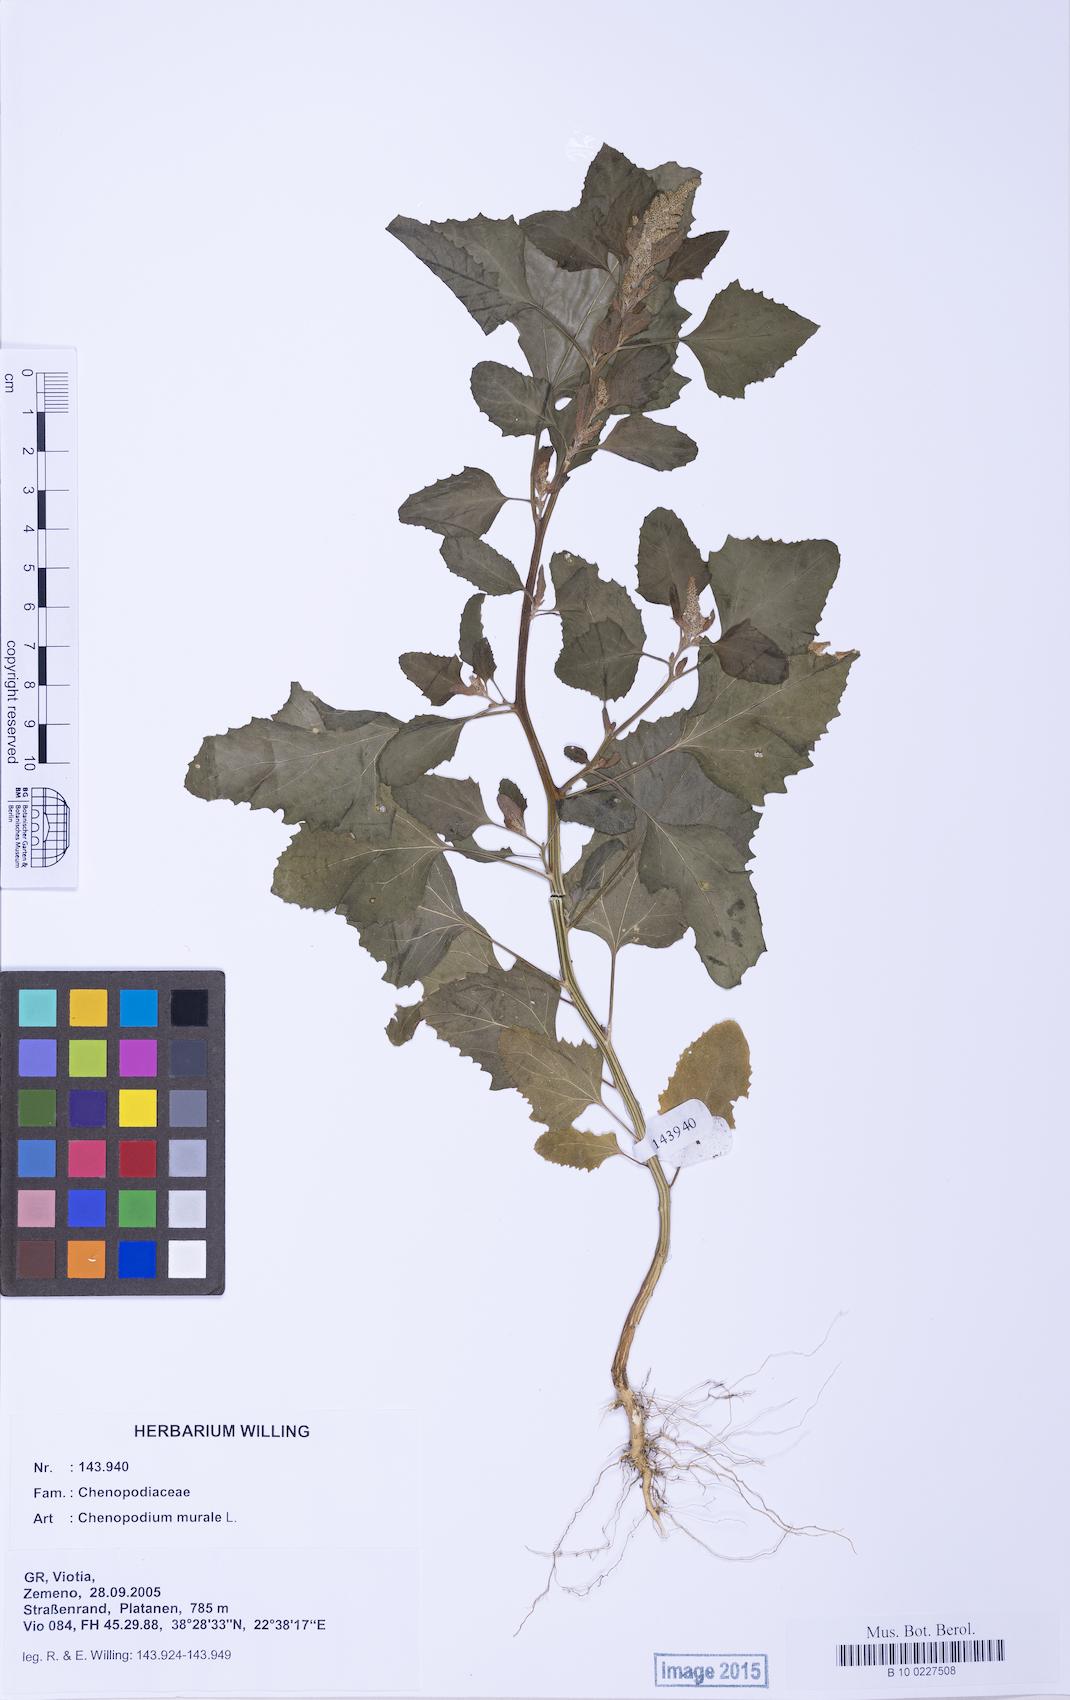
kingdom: Plantae
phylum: Tracheophyta
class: Magnoliopsida
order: Caryophyllales
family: Amaranthaceae
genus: Chenopodium
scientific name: Chenopodium giganteum
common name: Magentaspreen
